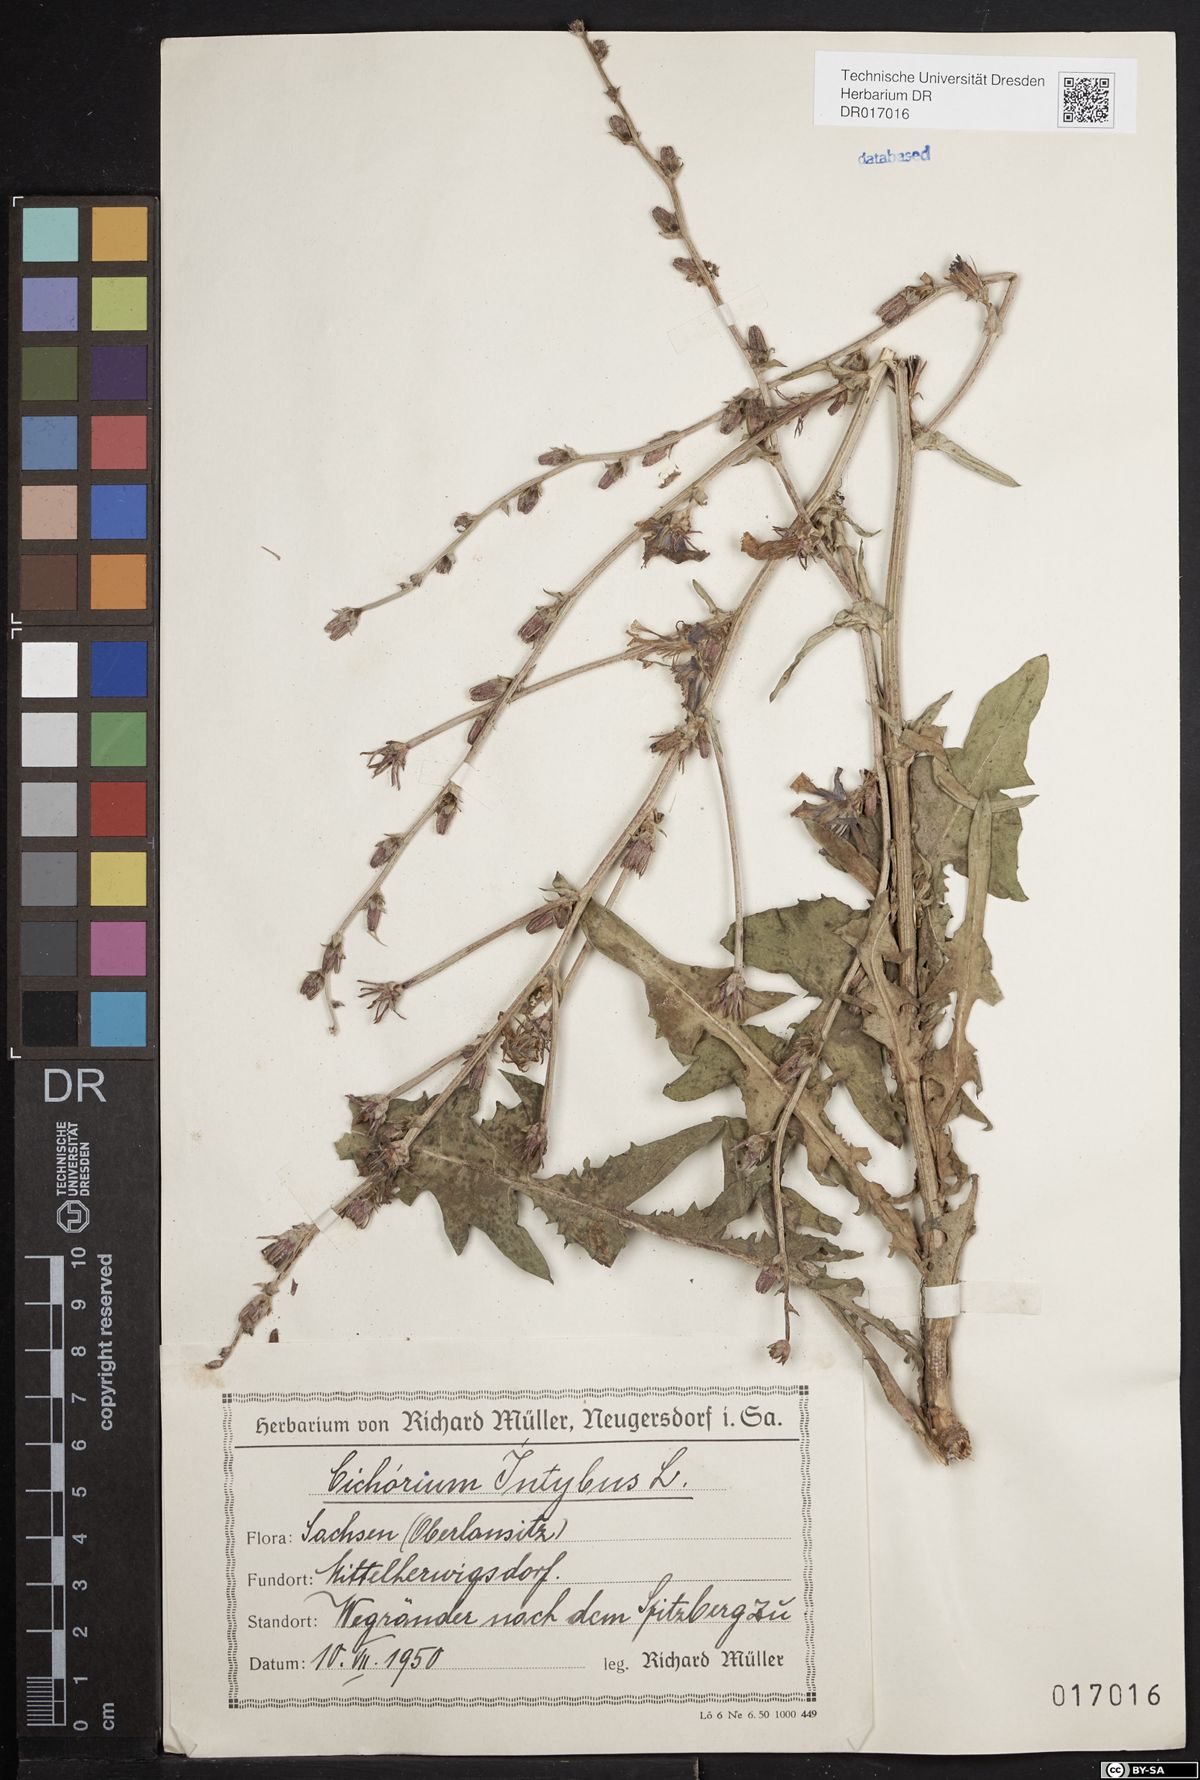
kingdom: Plantae
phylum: Tracheophyta
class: Magnoliopsida
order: Asterales
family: Asteraceae
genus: Cichorium
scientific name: Cichorium intybus
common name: Chicory
